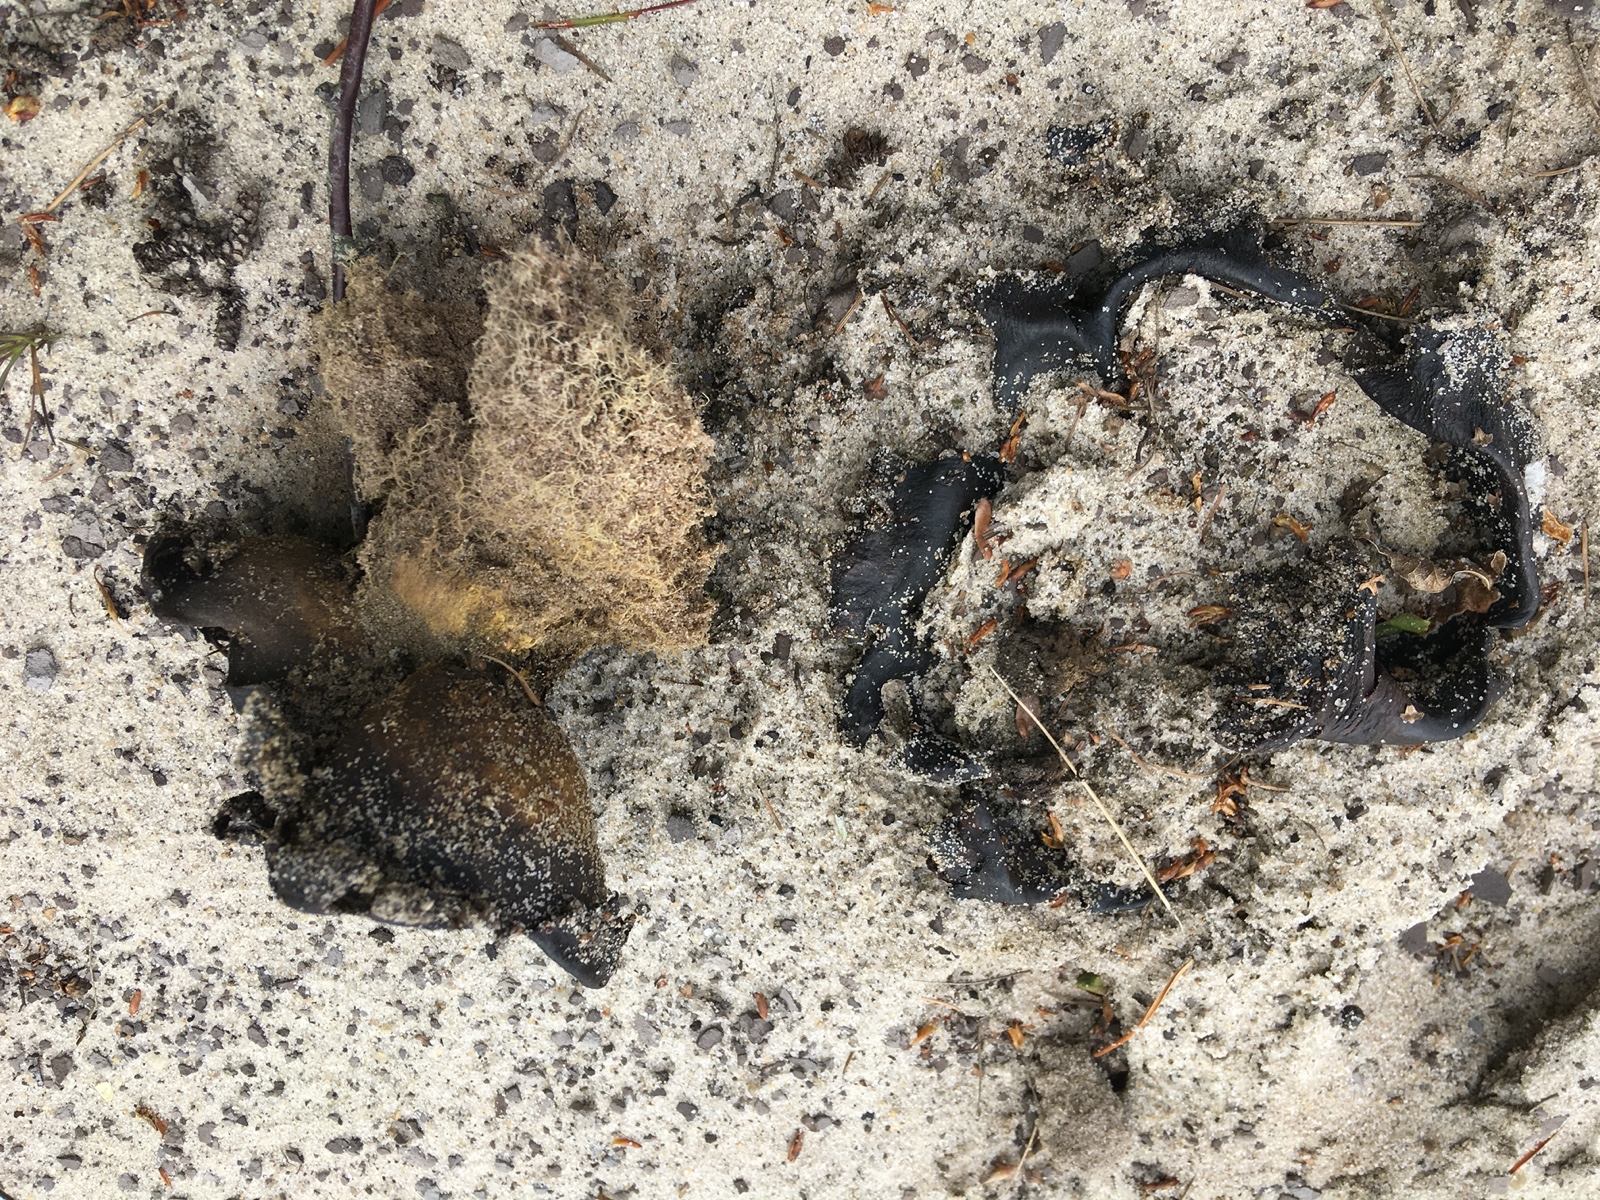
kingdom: Fungi
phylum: Basidiomycota
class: Agaricomycetes
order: Boletales
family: Sclerodermataceae
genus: Pisolithus
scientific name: Pisolithus capsulifer
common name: farvebold
